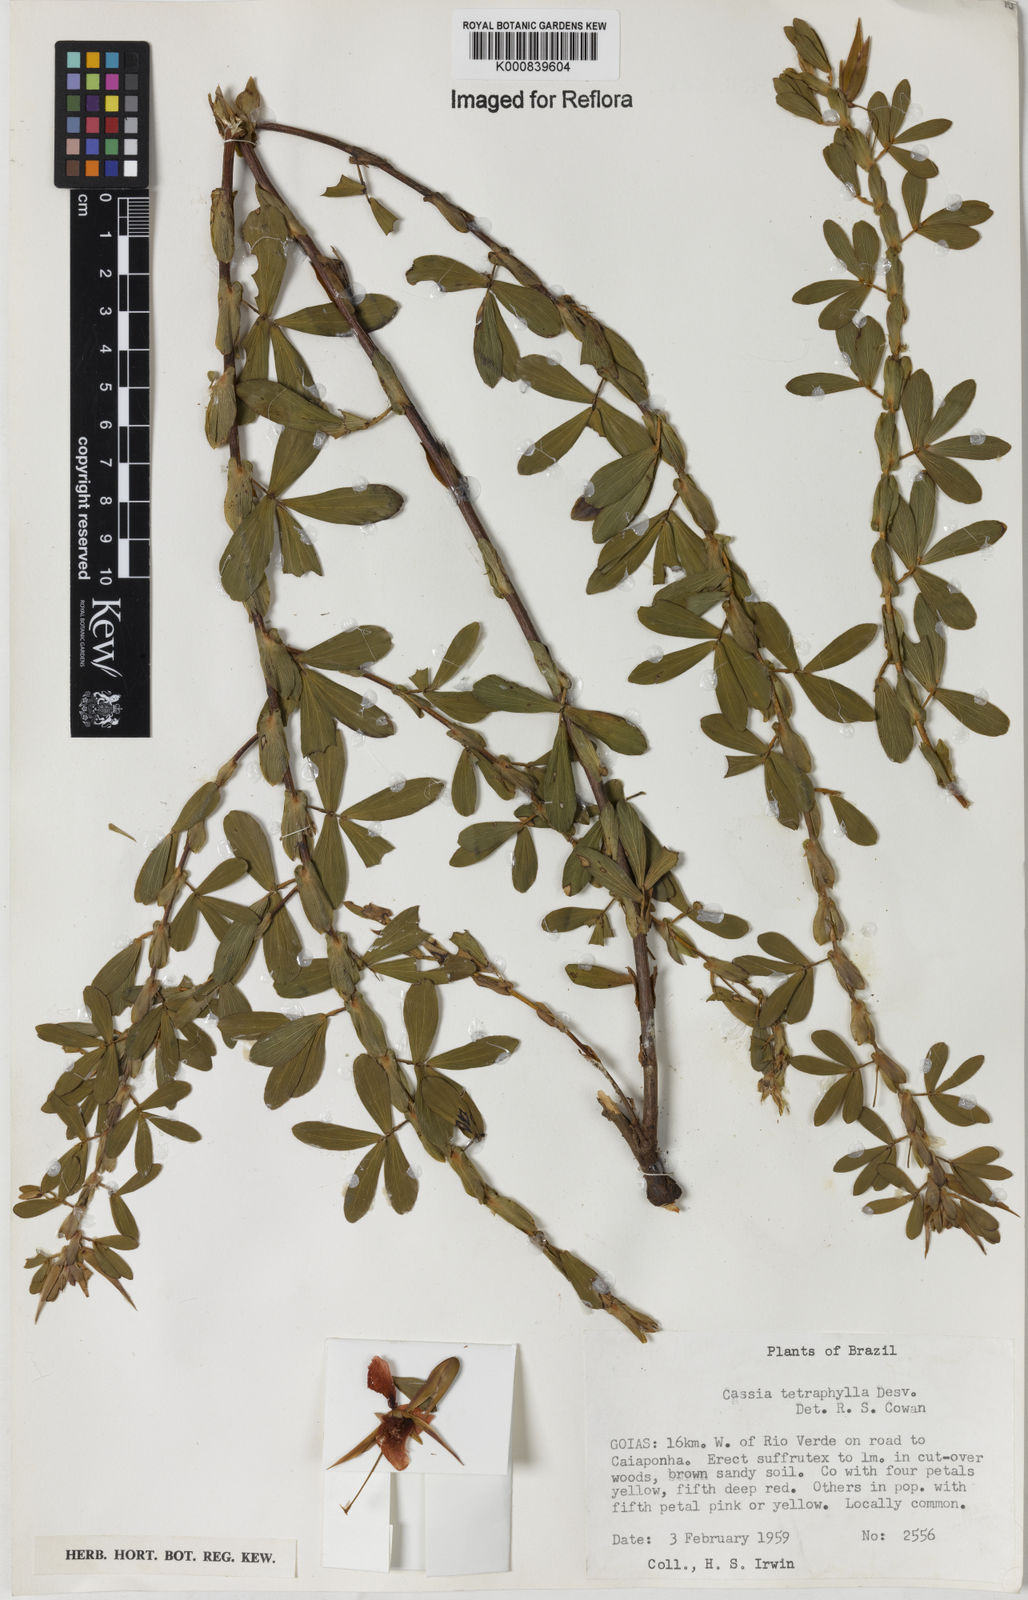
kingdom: Plantae
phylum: Tracheophyta
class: Magnoliopsida
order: Fabales
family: Fabaceae
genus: Chamaecrista
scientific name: Chamaecrista desvauxii
